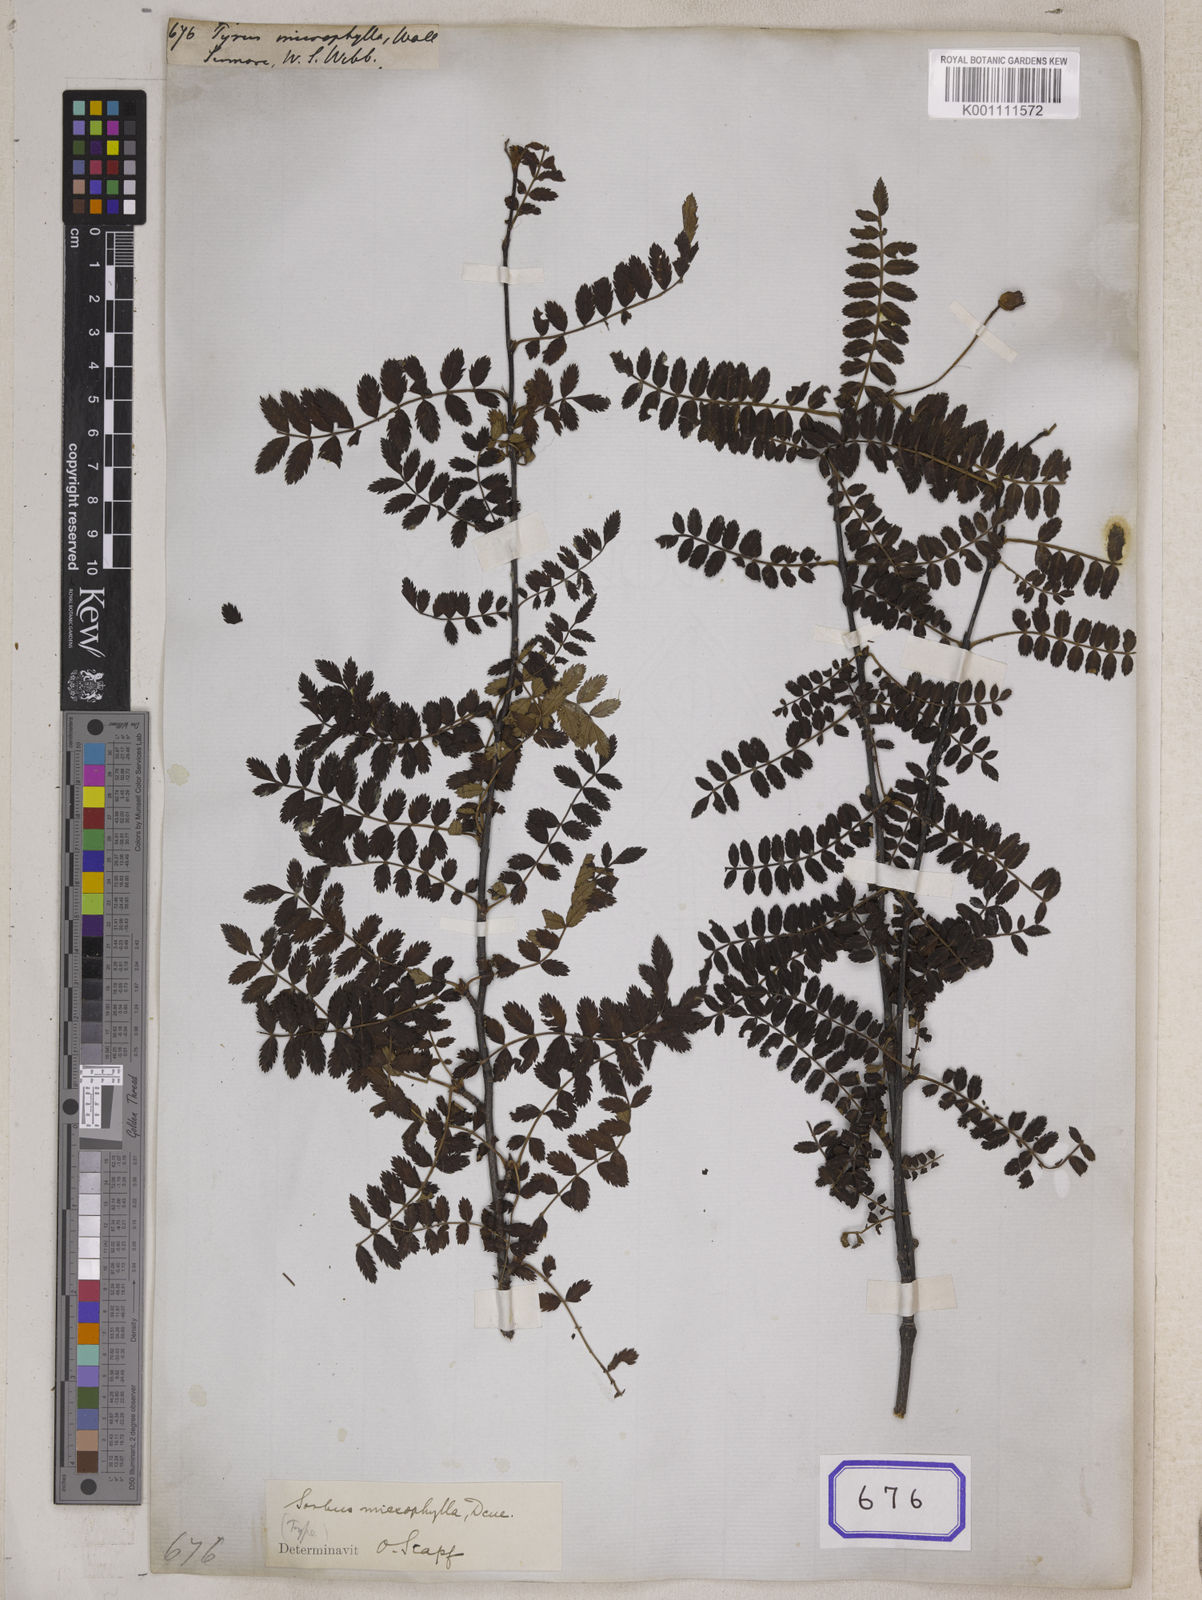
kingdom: Plantae
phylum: Tracheophyta
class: Magnoliopsida
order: Rosales
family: Rosaceae
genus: Pyrus
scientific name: Pyrus
